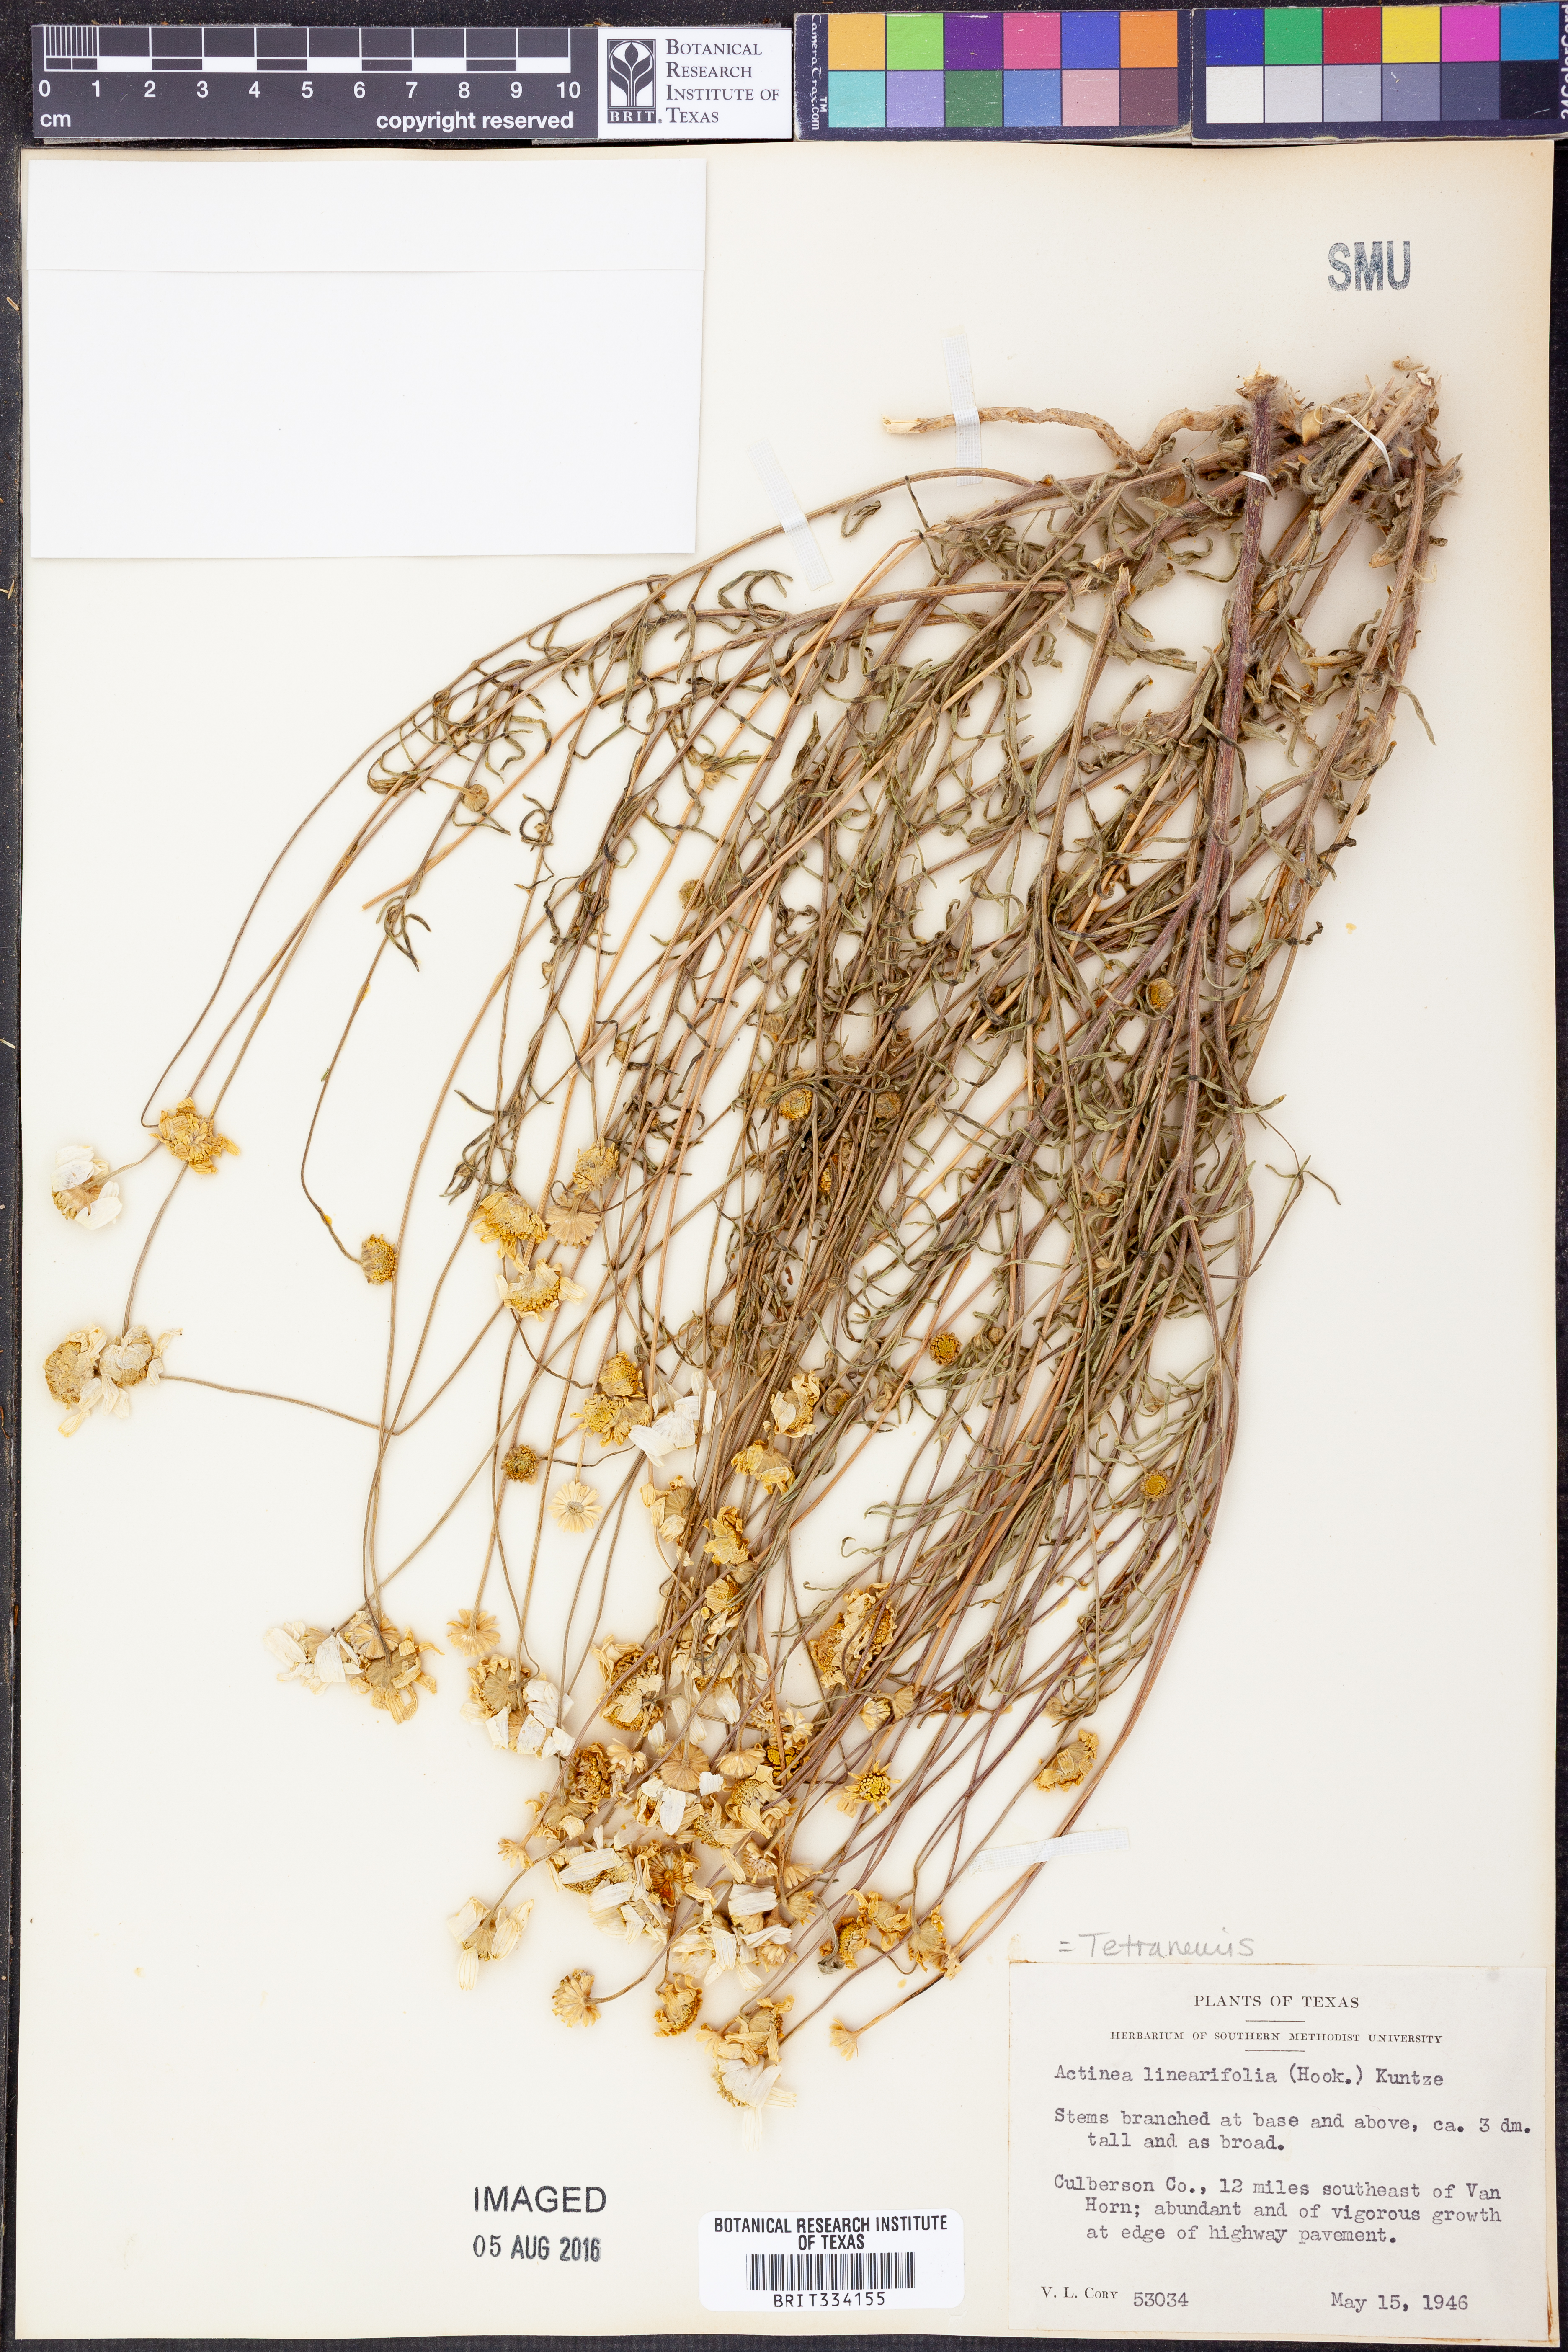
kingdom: Plantae
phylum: Tracheophyta
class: Magnoliopsida
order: Asterales
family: Asteraceae
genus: Tetraneuris
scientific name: Tetraneuris linearifolia
